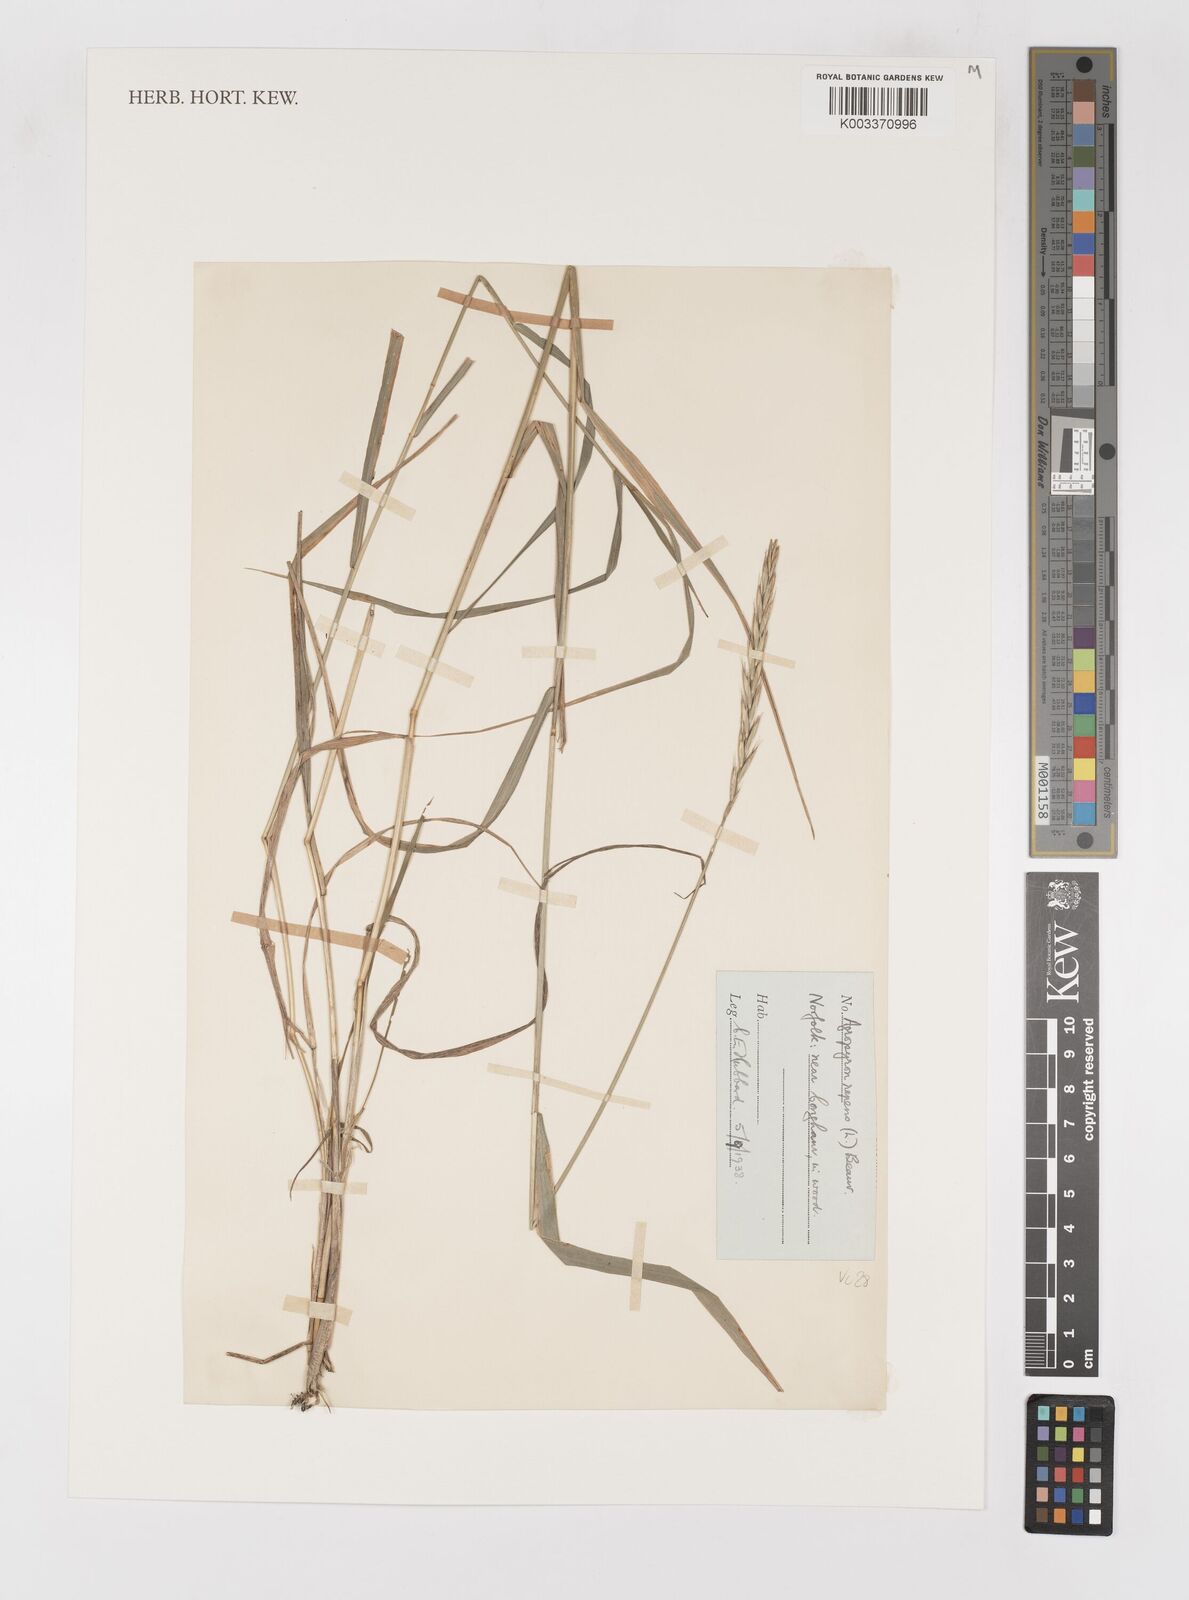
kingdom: Plantae
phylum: Tracheophyta
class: Liliopsida
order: Poales
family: Poaceae
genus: Elymus
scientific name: Elymus repens
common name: Quackgrass
